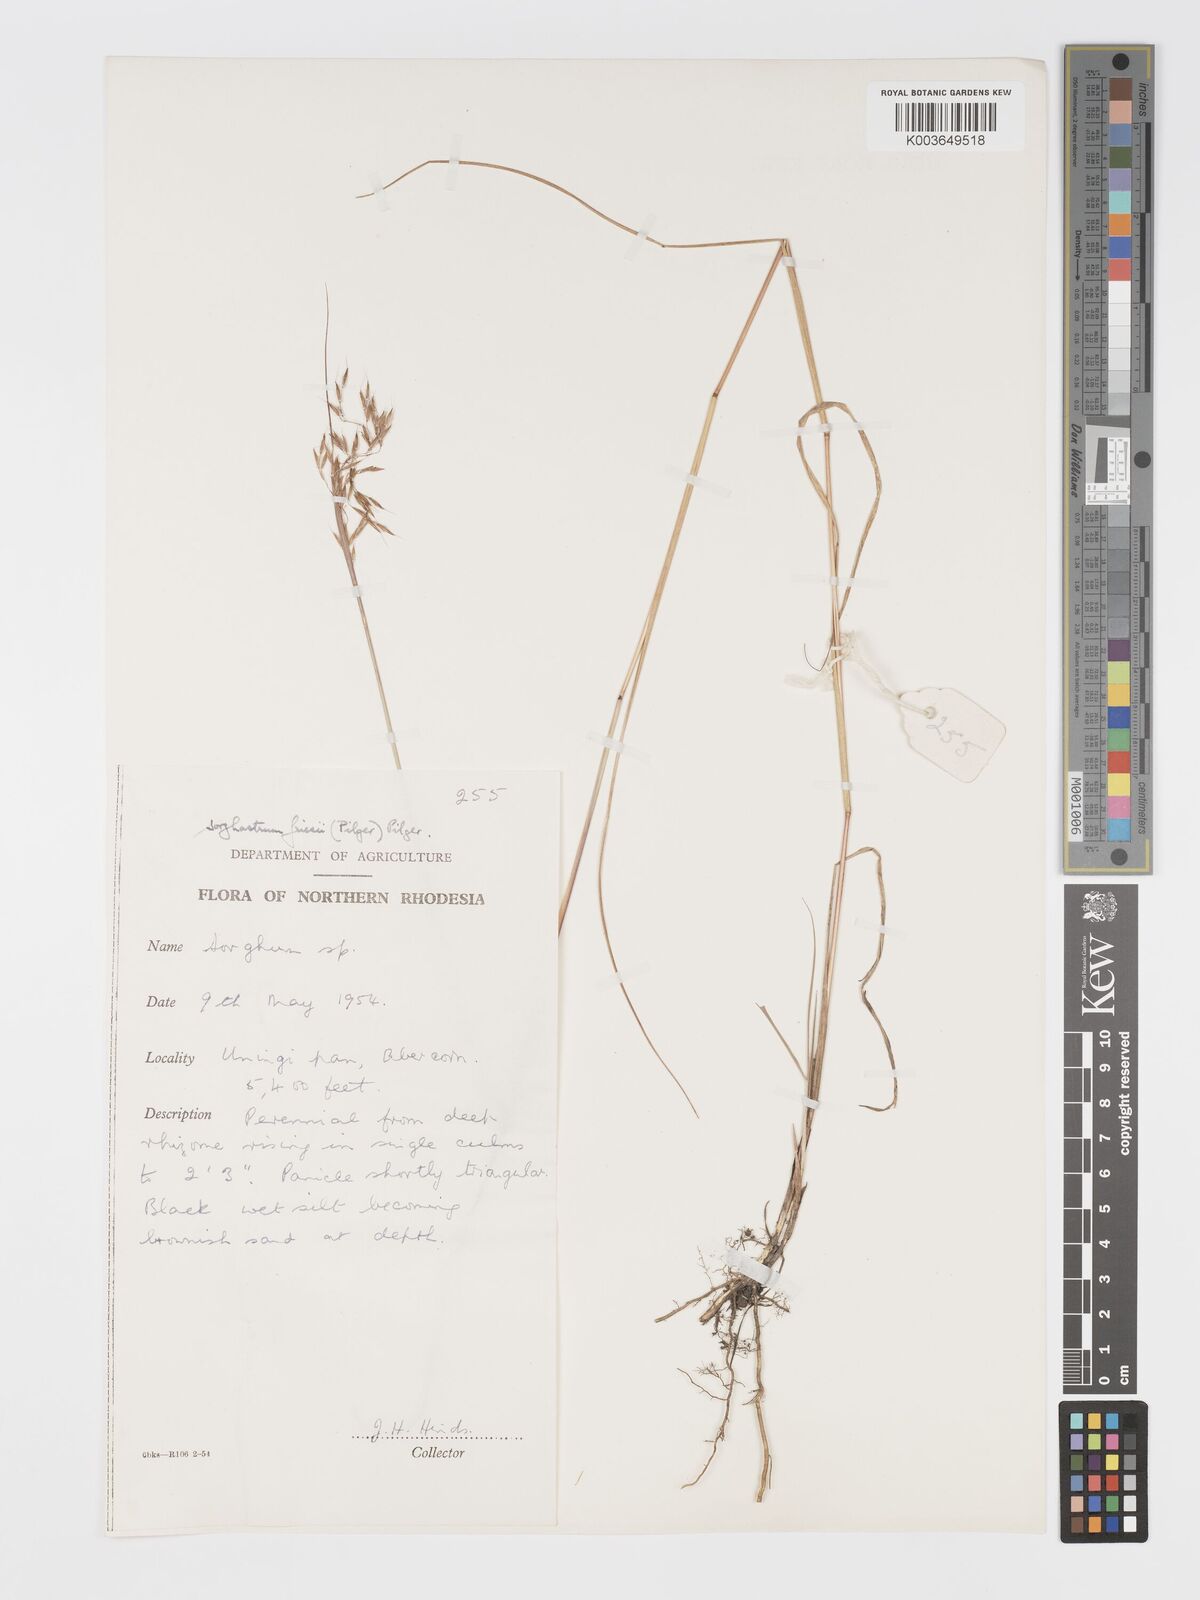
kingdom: Plantae
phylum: Tracheophyta
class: Liliopsida
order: Poales
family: Poaceae
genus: Sorghastrum
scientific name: Sorghastrum nudipes
